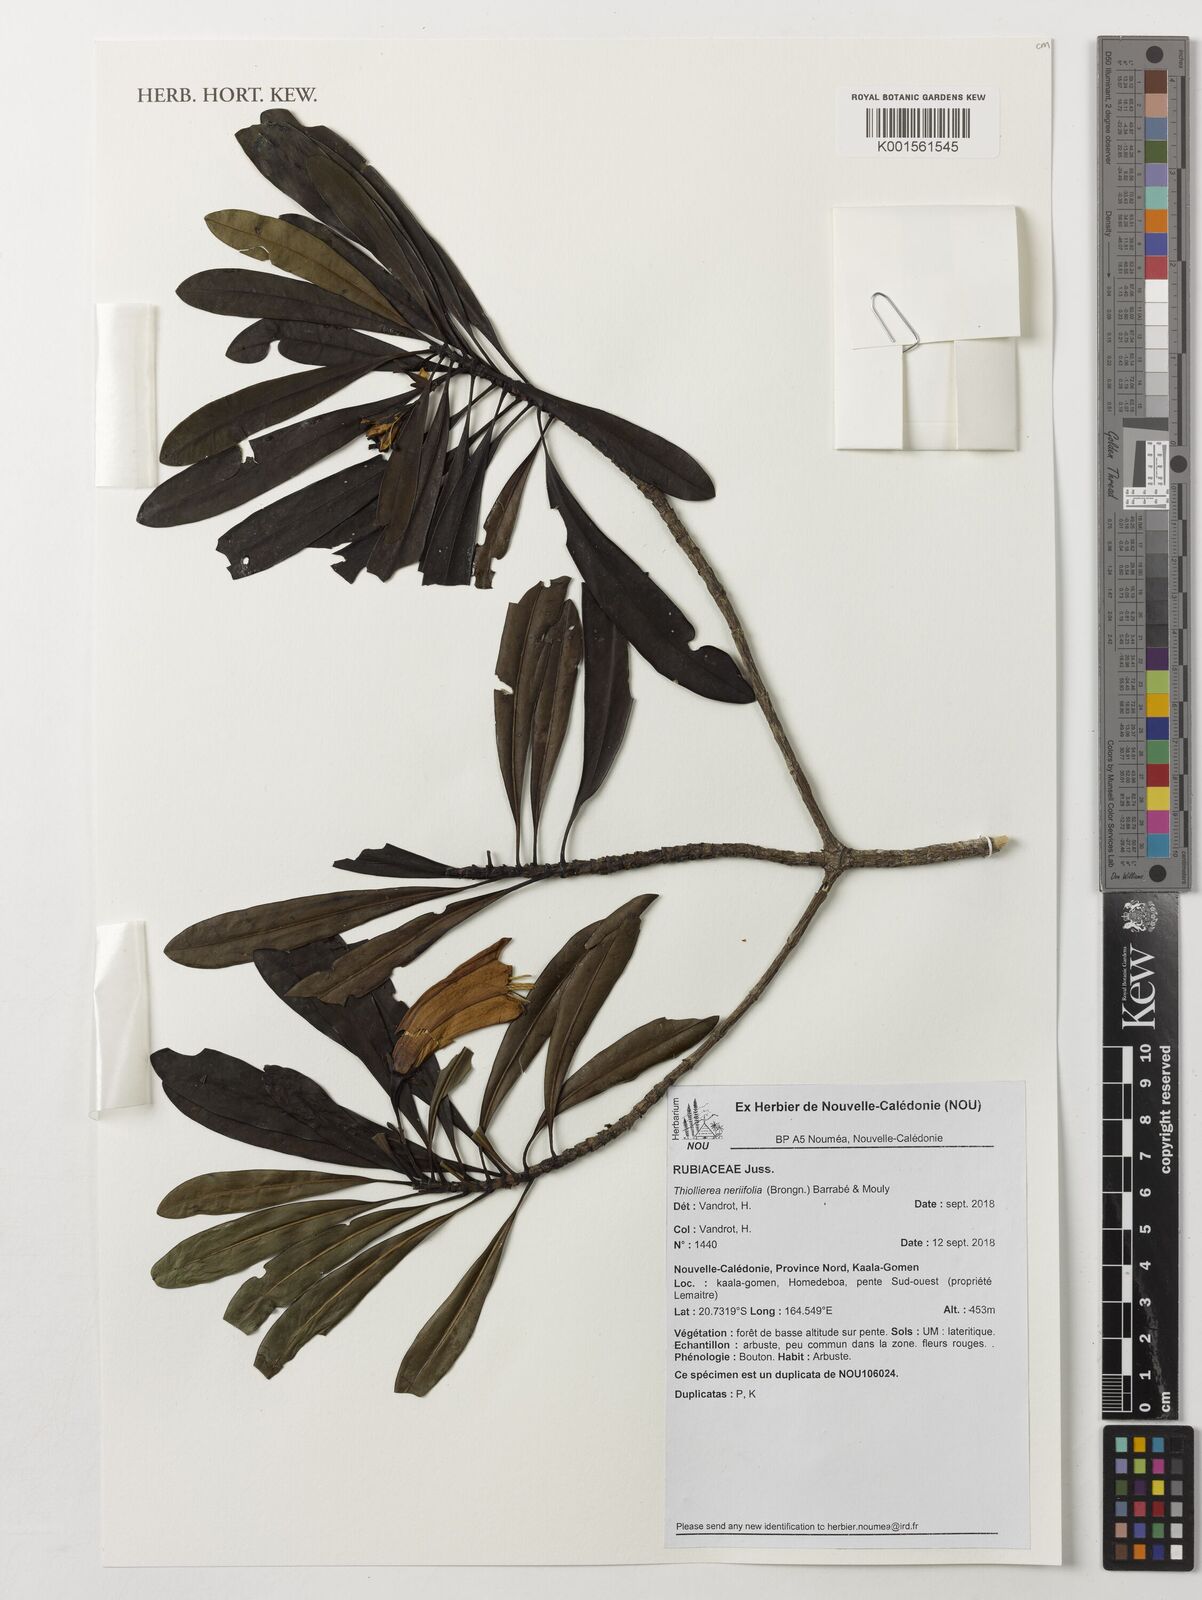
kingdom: Plantae
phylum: Tracheophyta
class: Magnoliopsida
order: Gentianales
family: Rubiaceae
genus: Thiollierea
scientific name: Thiollierea neriifolia
